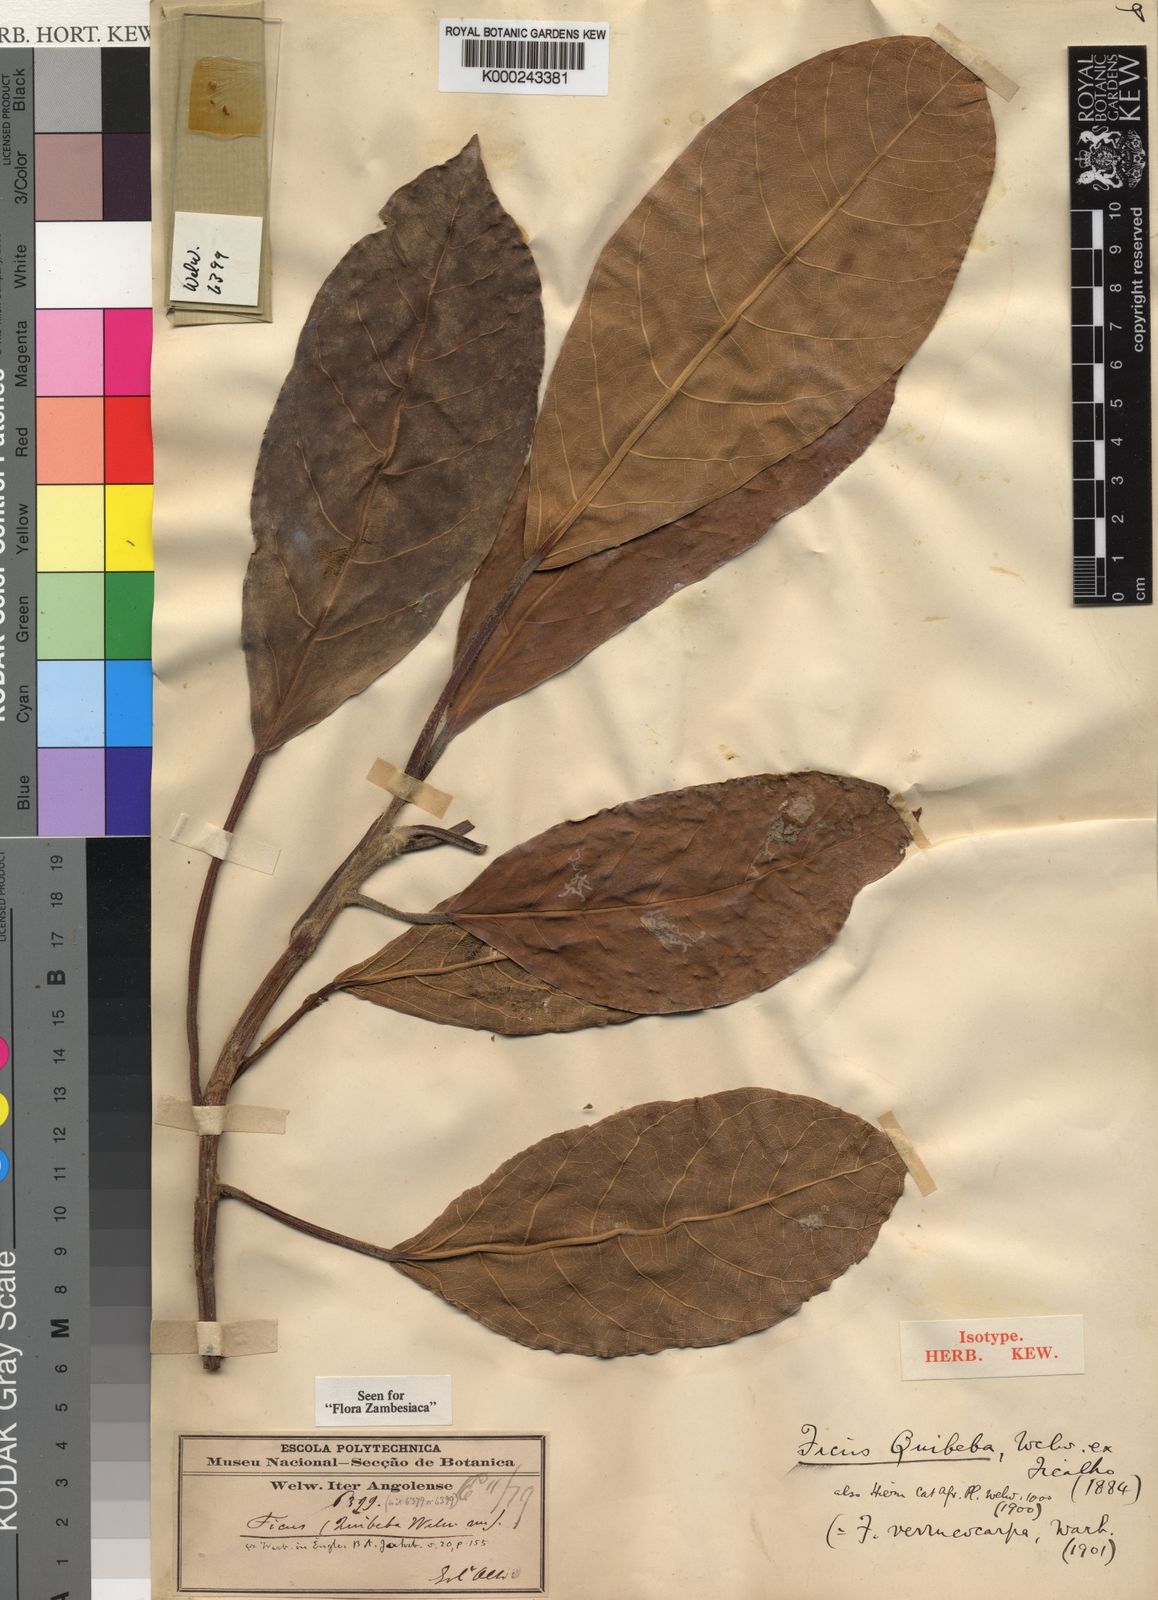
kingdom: Plantae
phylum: Tracheophyta
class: Magnoliopsida
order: Rosales
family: Moraceae
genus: Ficus
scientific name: Ficus lutea
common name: Giant-leaved fig
